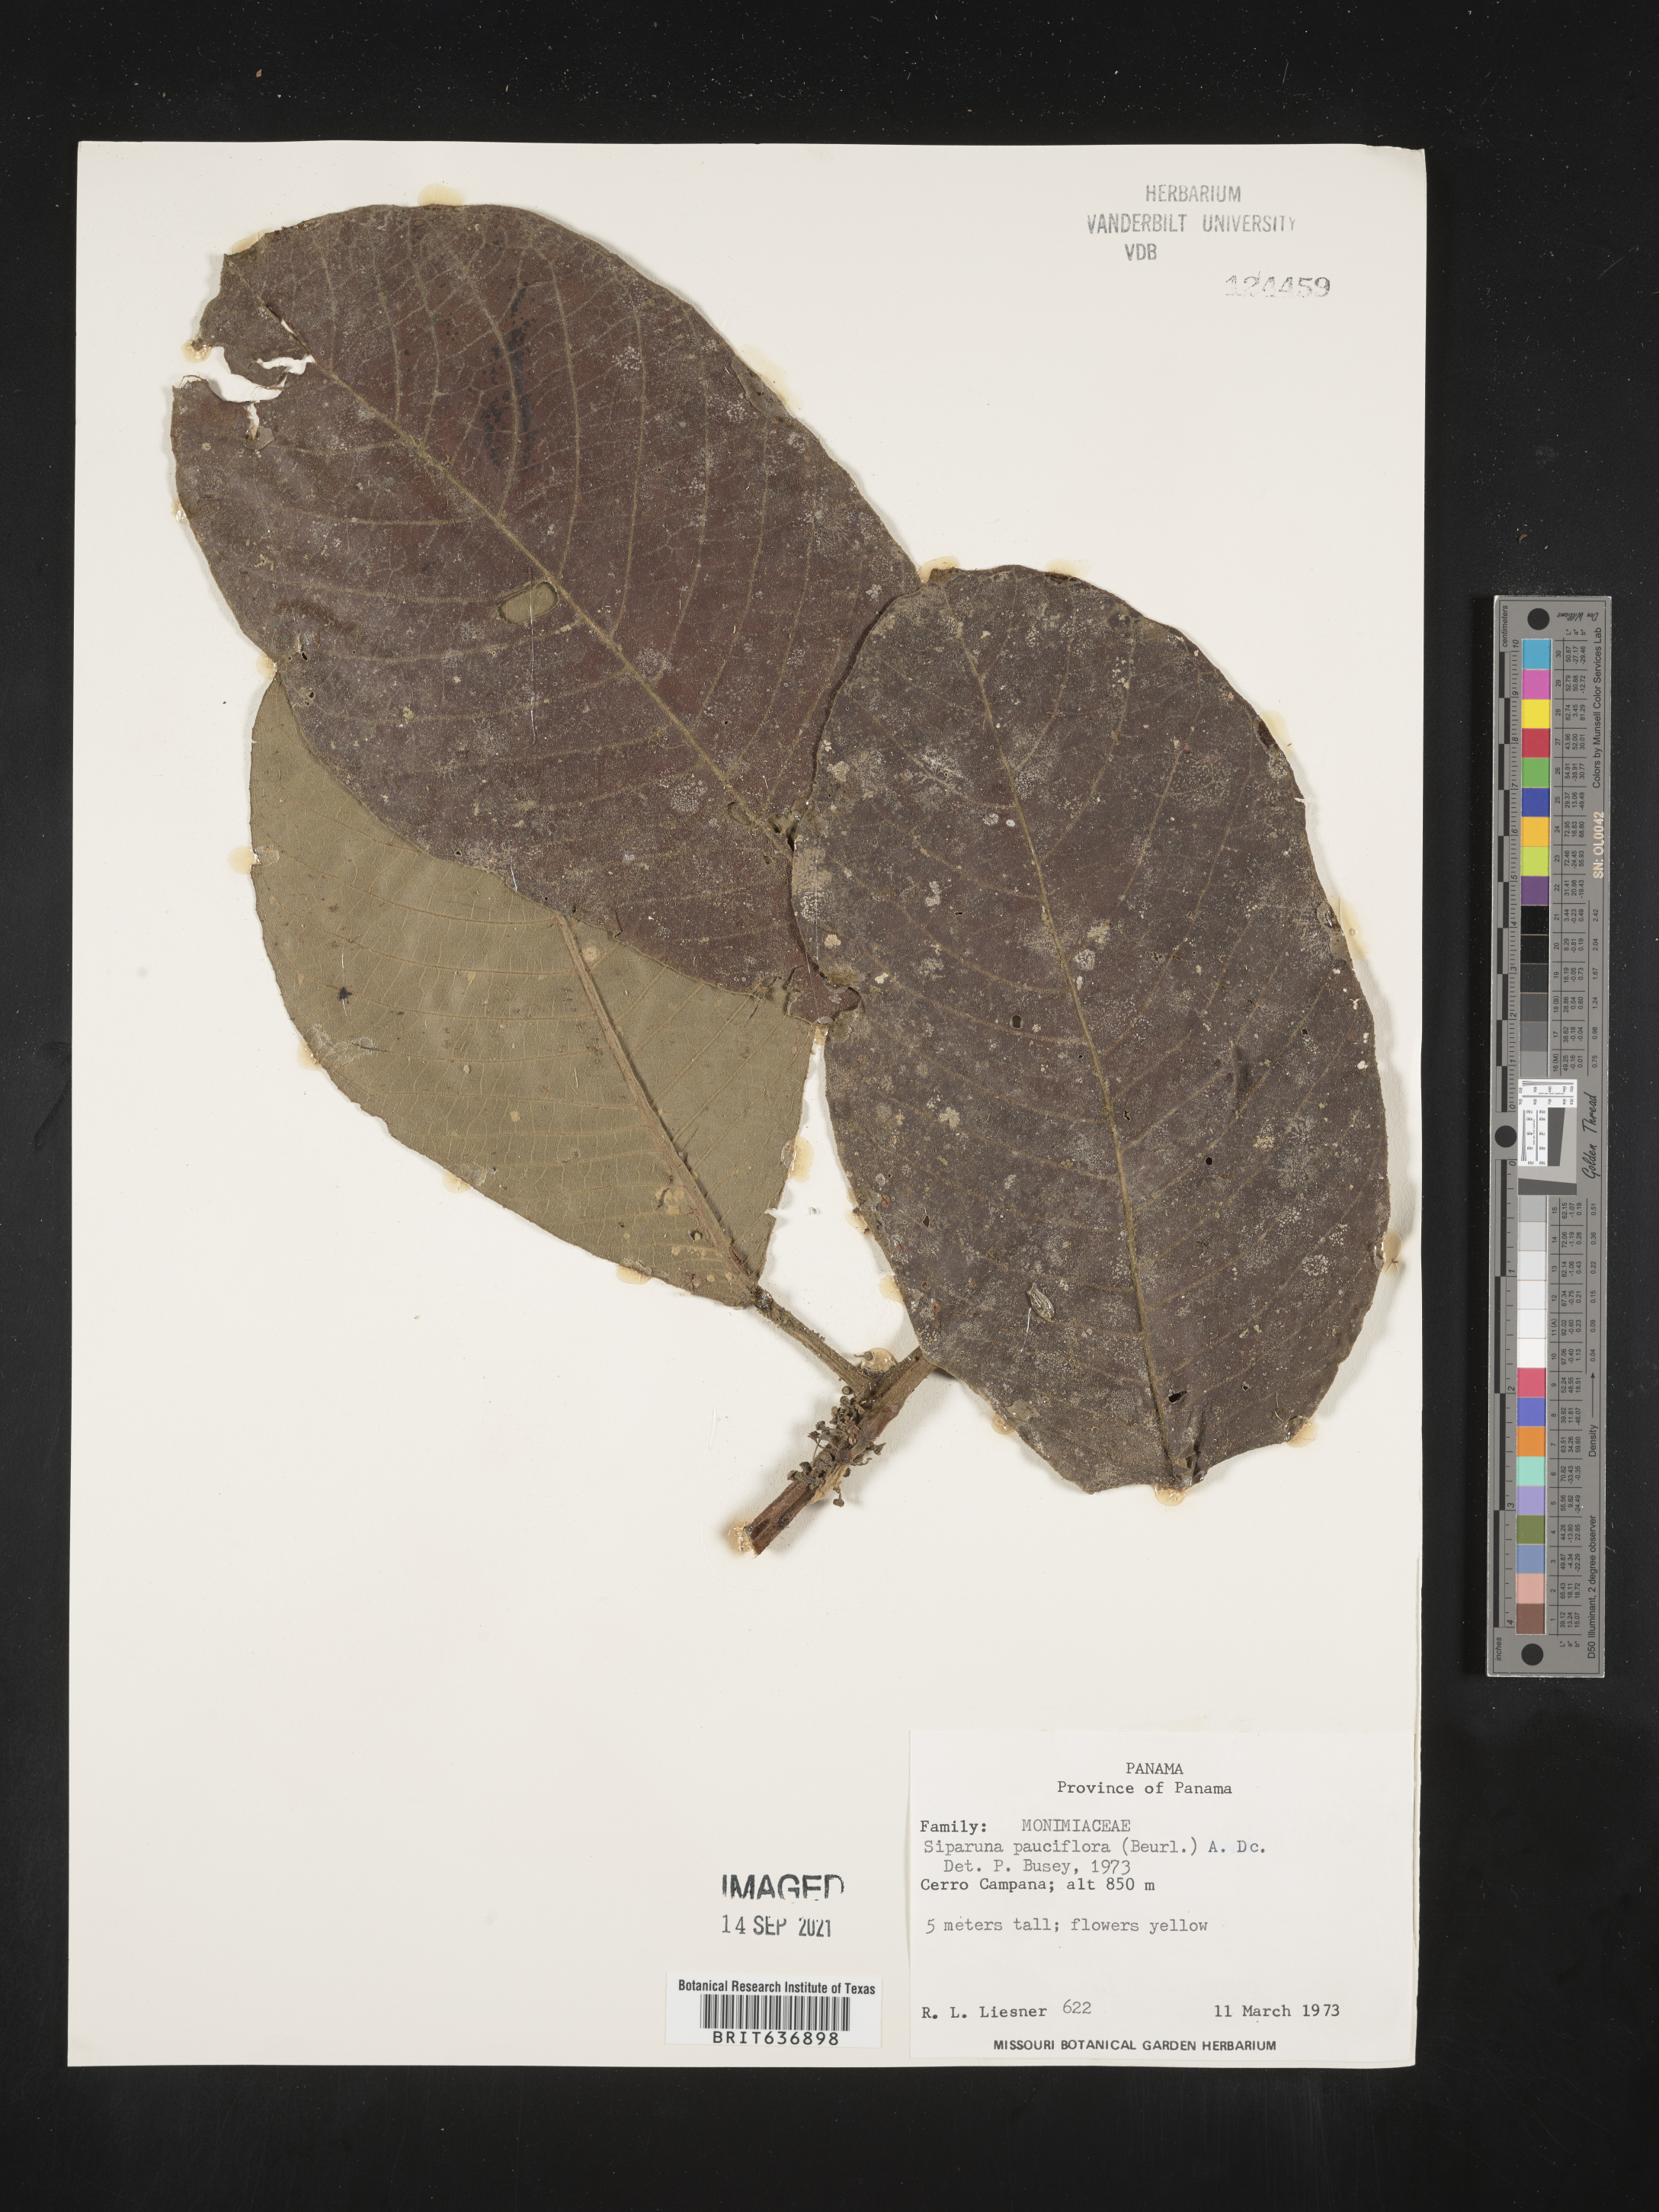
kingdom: Plantae
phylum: Tracheophyta
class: Magnoliopsida
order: Laurales
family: Siparunaceae
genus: Siparuna
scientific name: Siparuna
